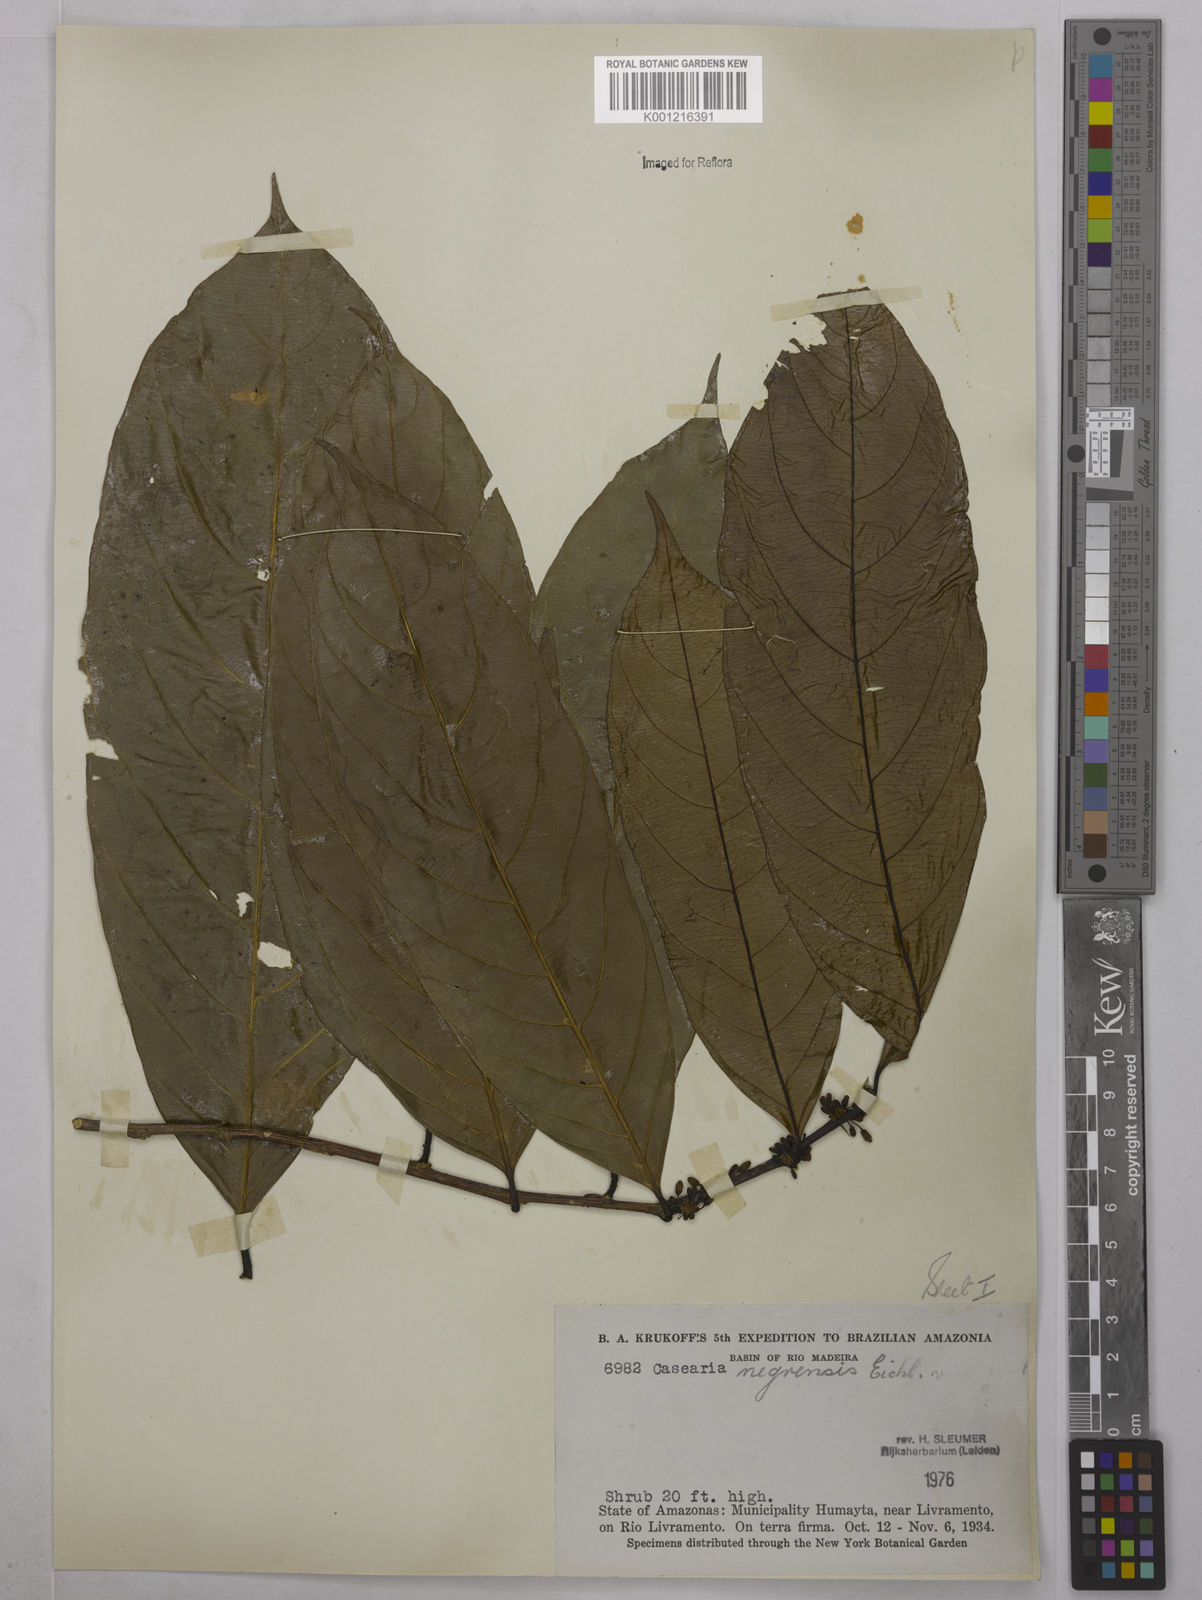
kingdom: Plantae
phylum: Tracheophyta
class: Magnoliopsida
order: Malpighiales
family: Salicaceae
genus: Casearia
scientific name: Casearia negrensis
